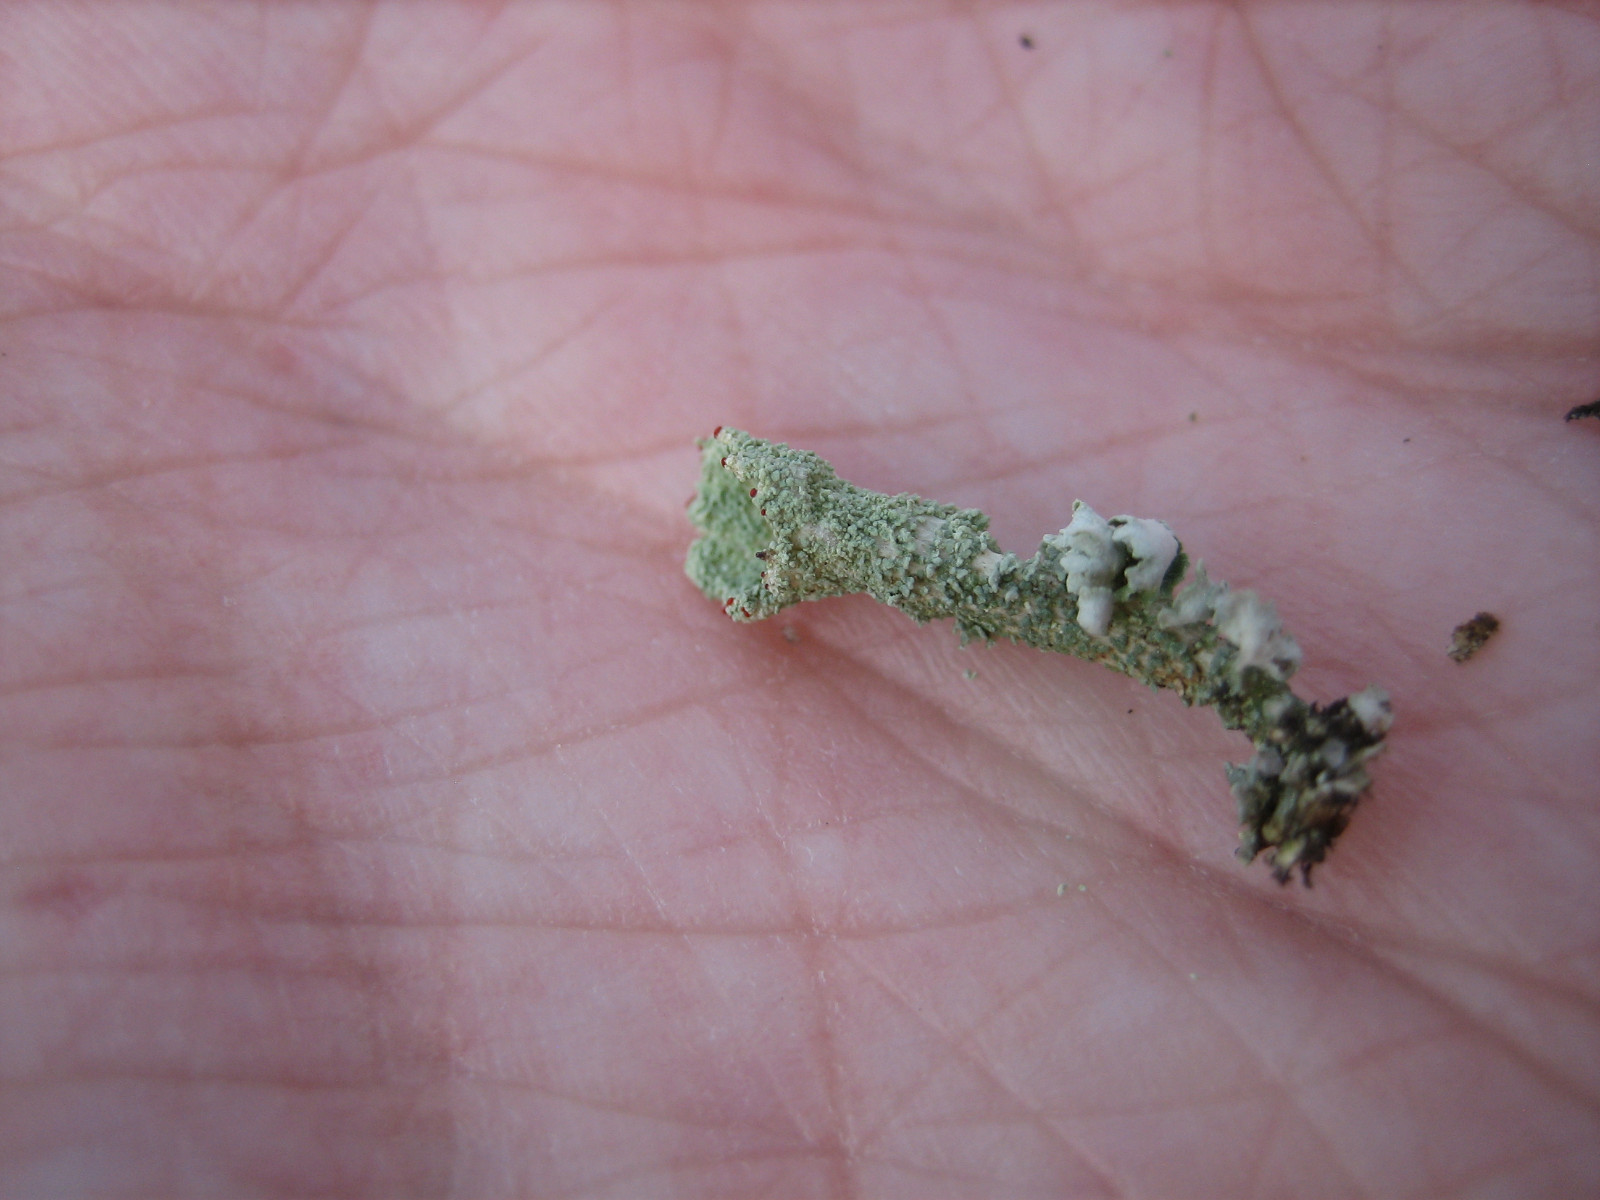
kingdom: Fungi
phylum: Ascomycota
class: Lecanoromycetes
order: Lecanorales
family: Cladoniaceae
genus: Cladonia
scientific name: Cladonia diversa
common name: rød bægerlav
